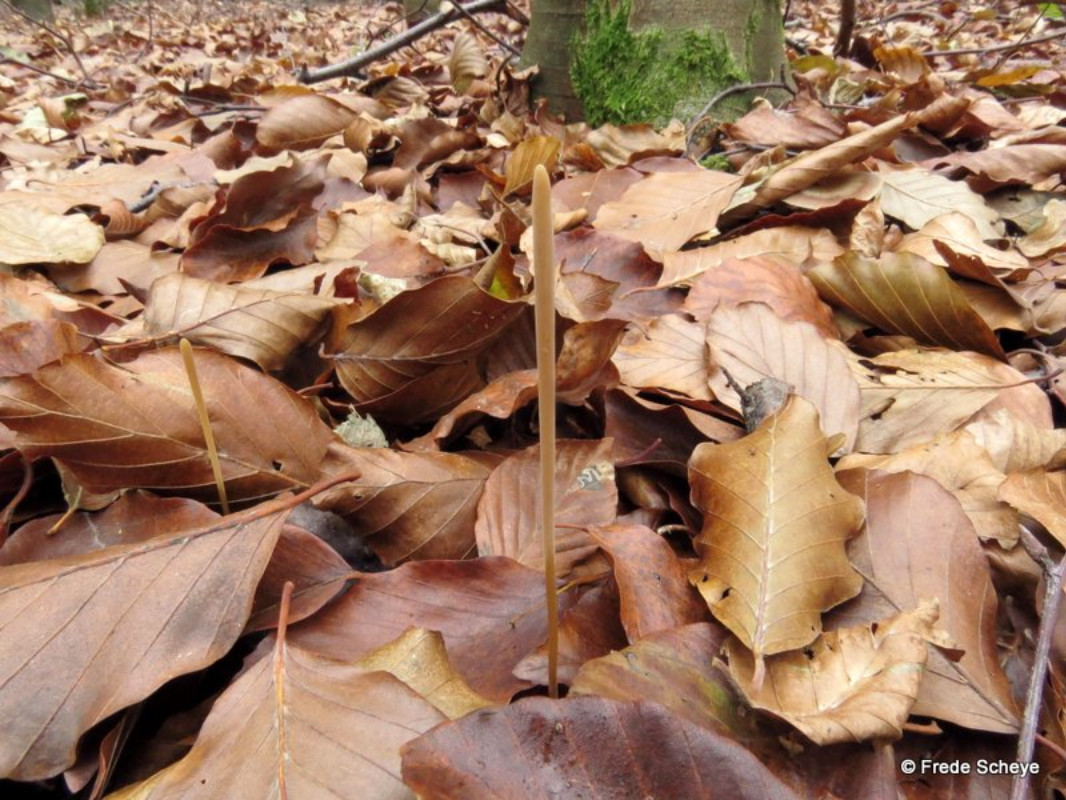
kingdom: Fungi
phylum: Basidiomycota
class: Agaricomycetes
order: Agaricales
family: Typhulaceae
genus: Typhula
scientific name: Typhula fistulosa
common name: pibet rørkølle
